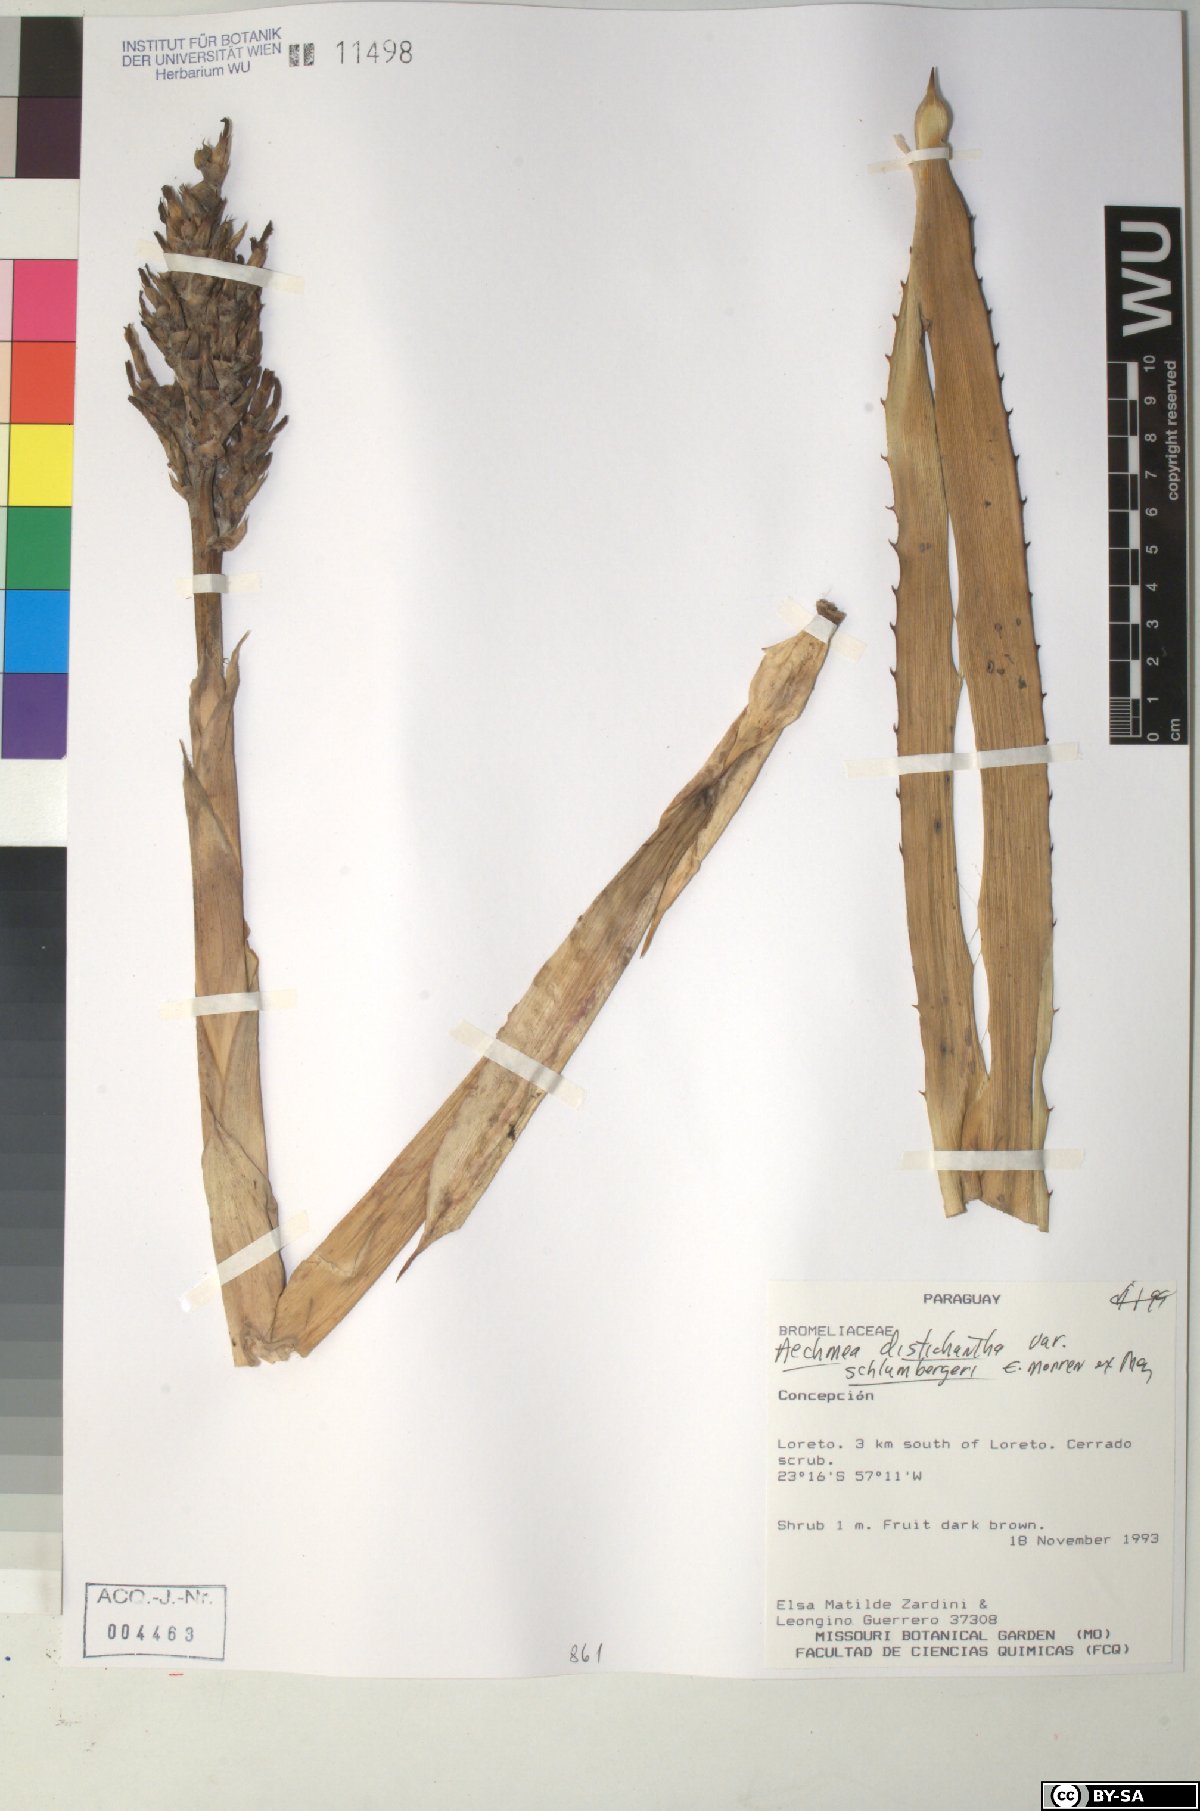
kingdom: Plantae
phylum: Tracheophyta
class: Liliopsida
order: Poales
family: Bromeliaceae
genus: Aechmea
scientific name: Aechmea distichantha
